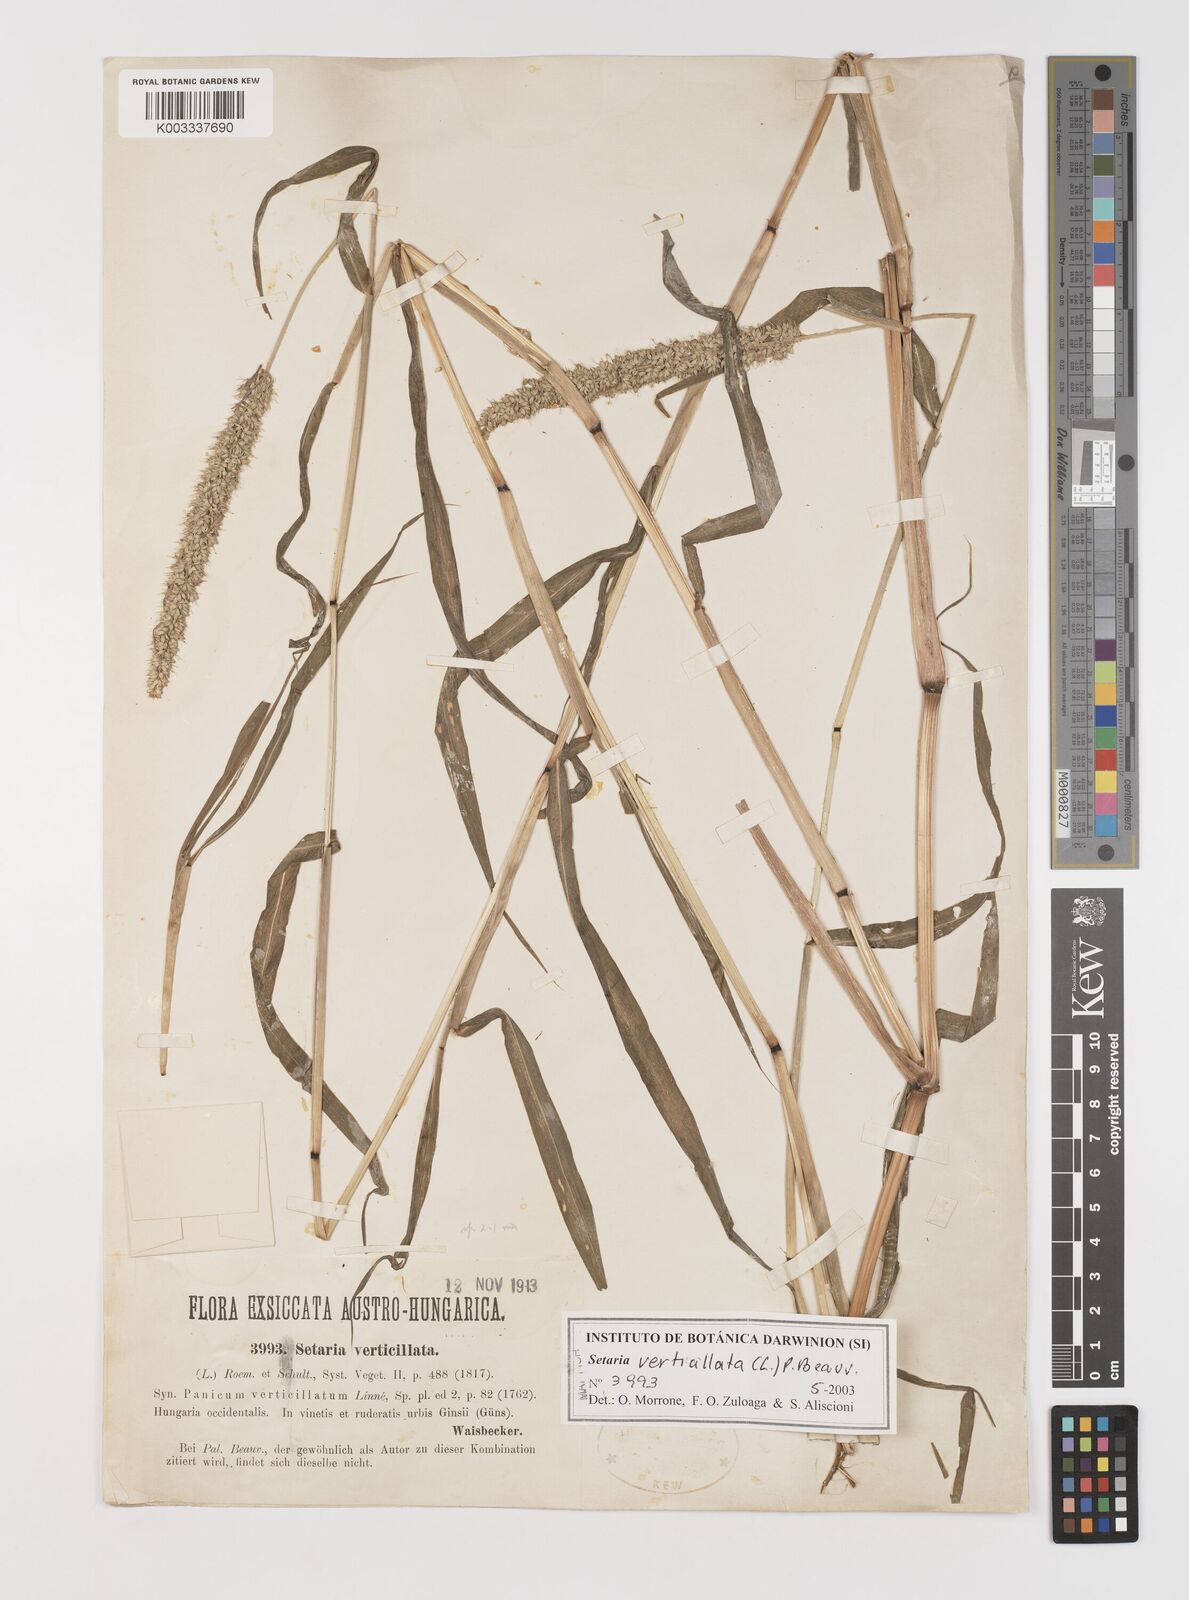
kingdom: Plantae
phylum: Tracheophyta
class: Liliopsida
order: Poales
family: Poaceae
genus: Setaria
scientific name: Setaria verticillata
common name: Hooked bristlegrass
